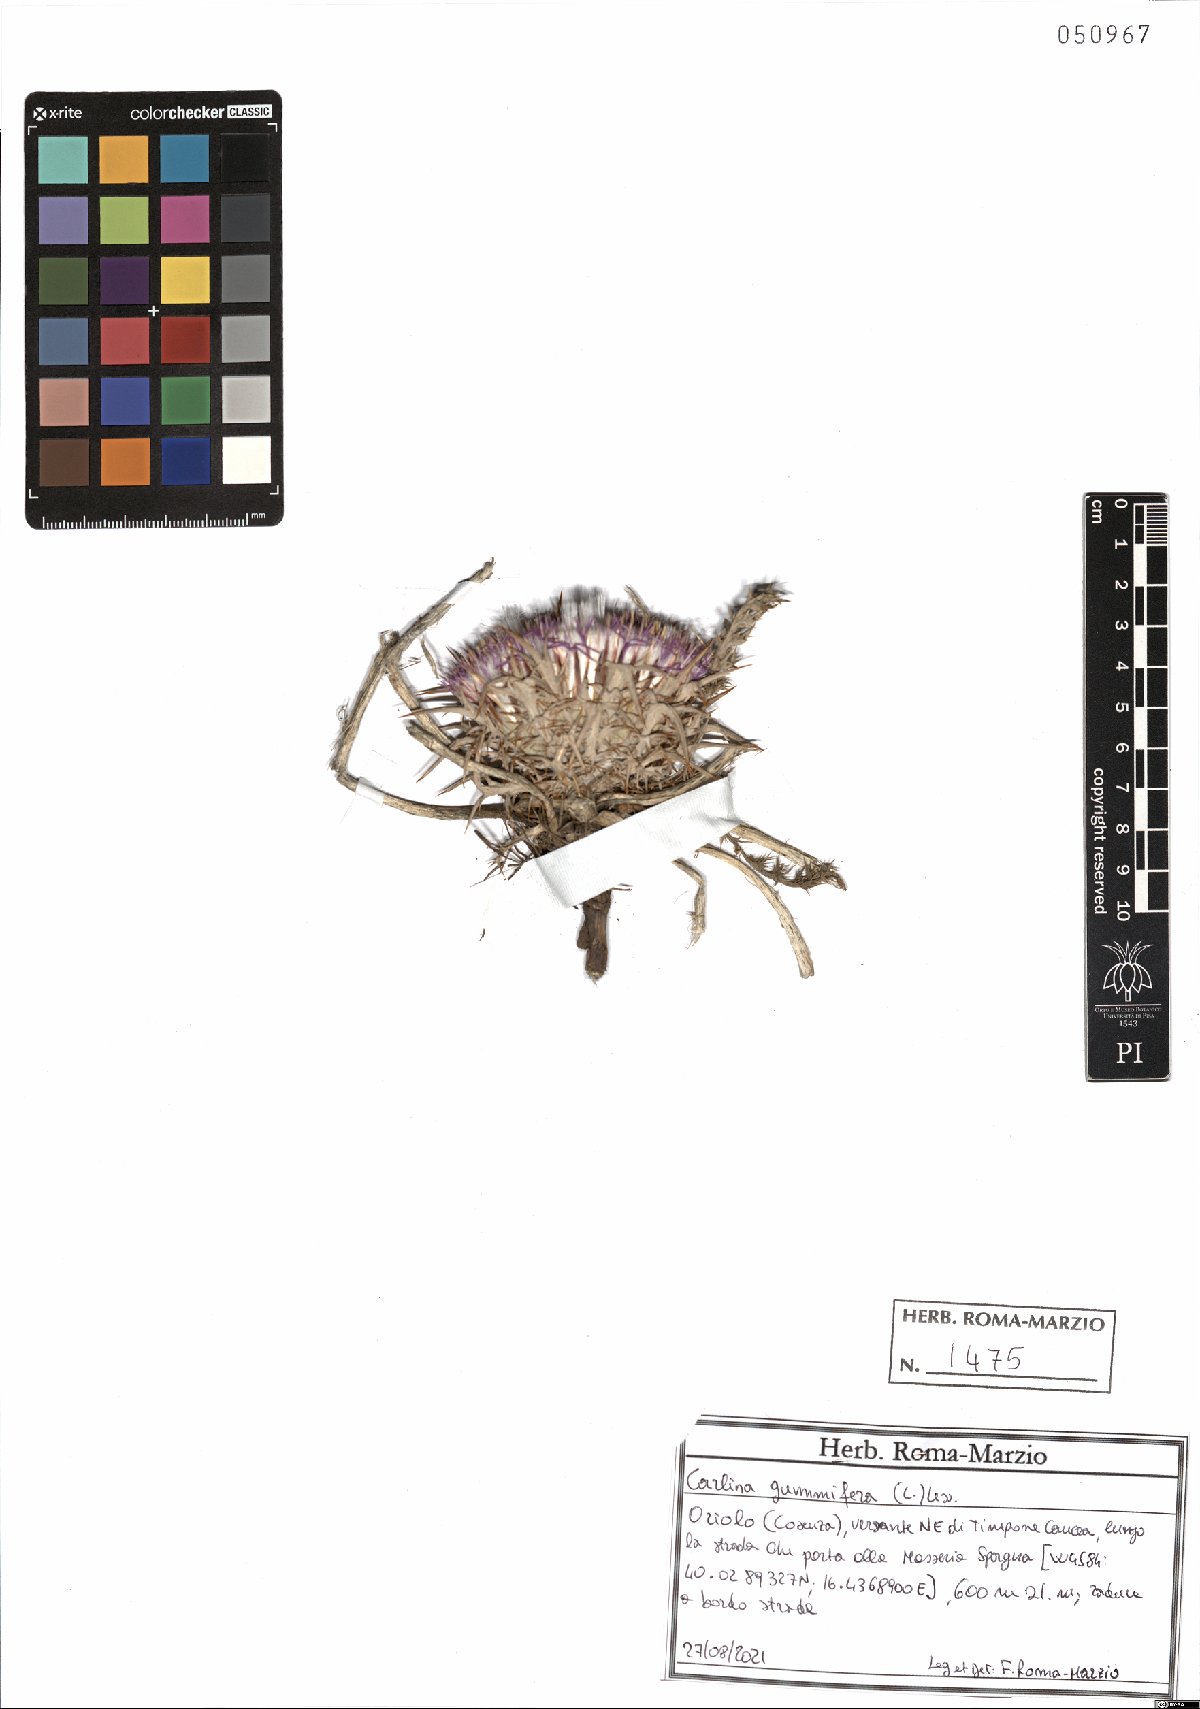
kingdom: Plantae
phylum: Tracheophyta
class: Magnoliopsida
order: Asterales
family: Asteraceae
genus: Chamaeleon
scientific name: Chamaeleon gummifer
